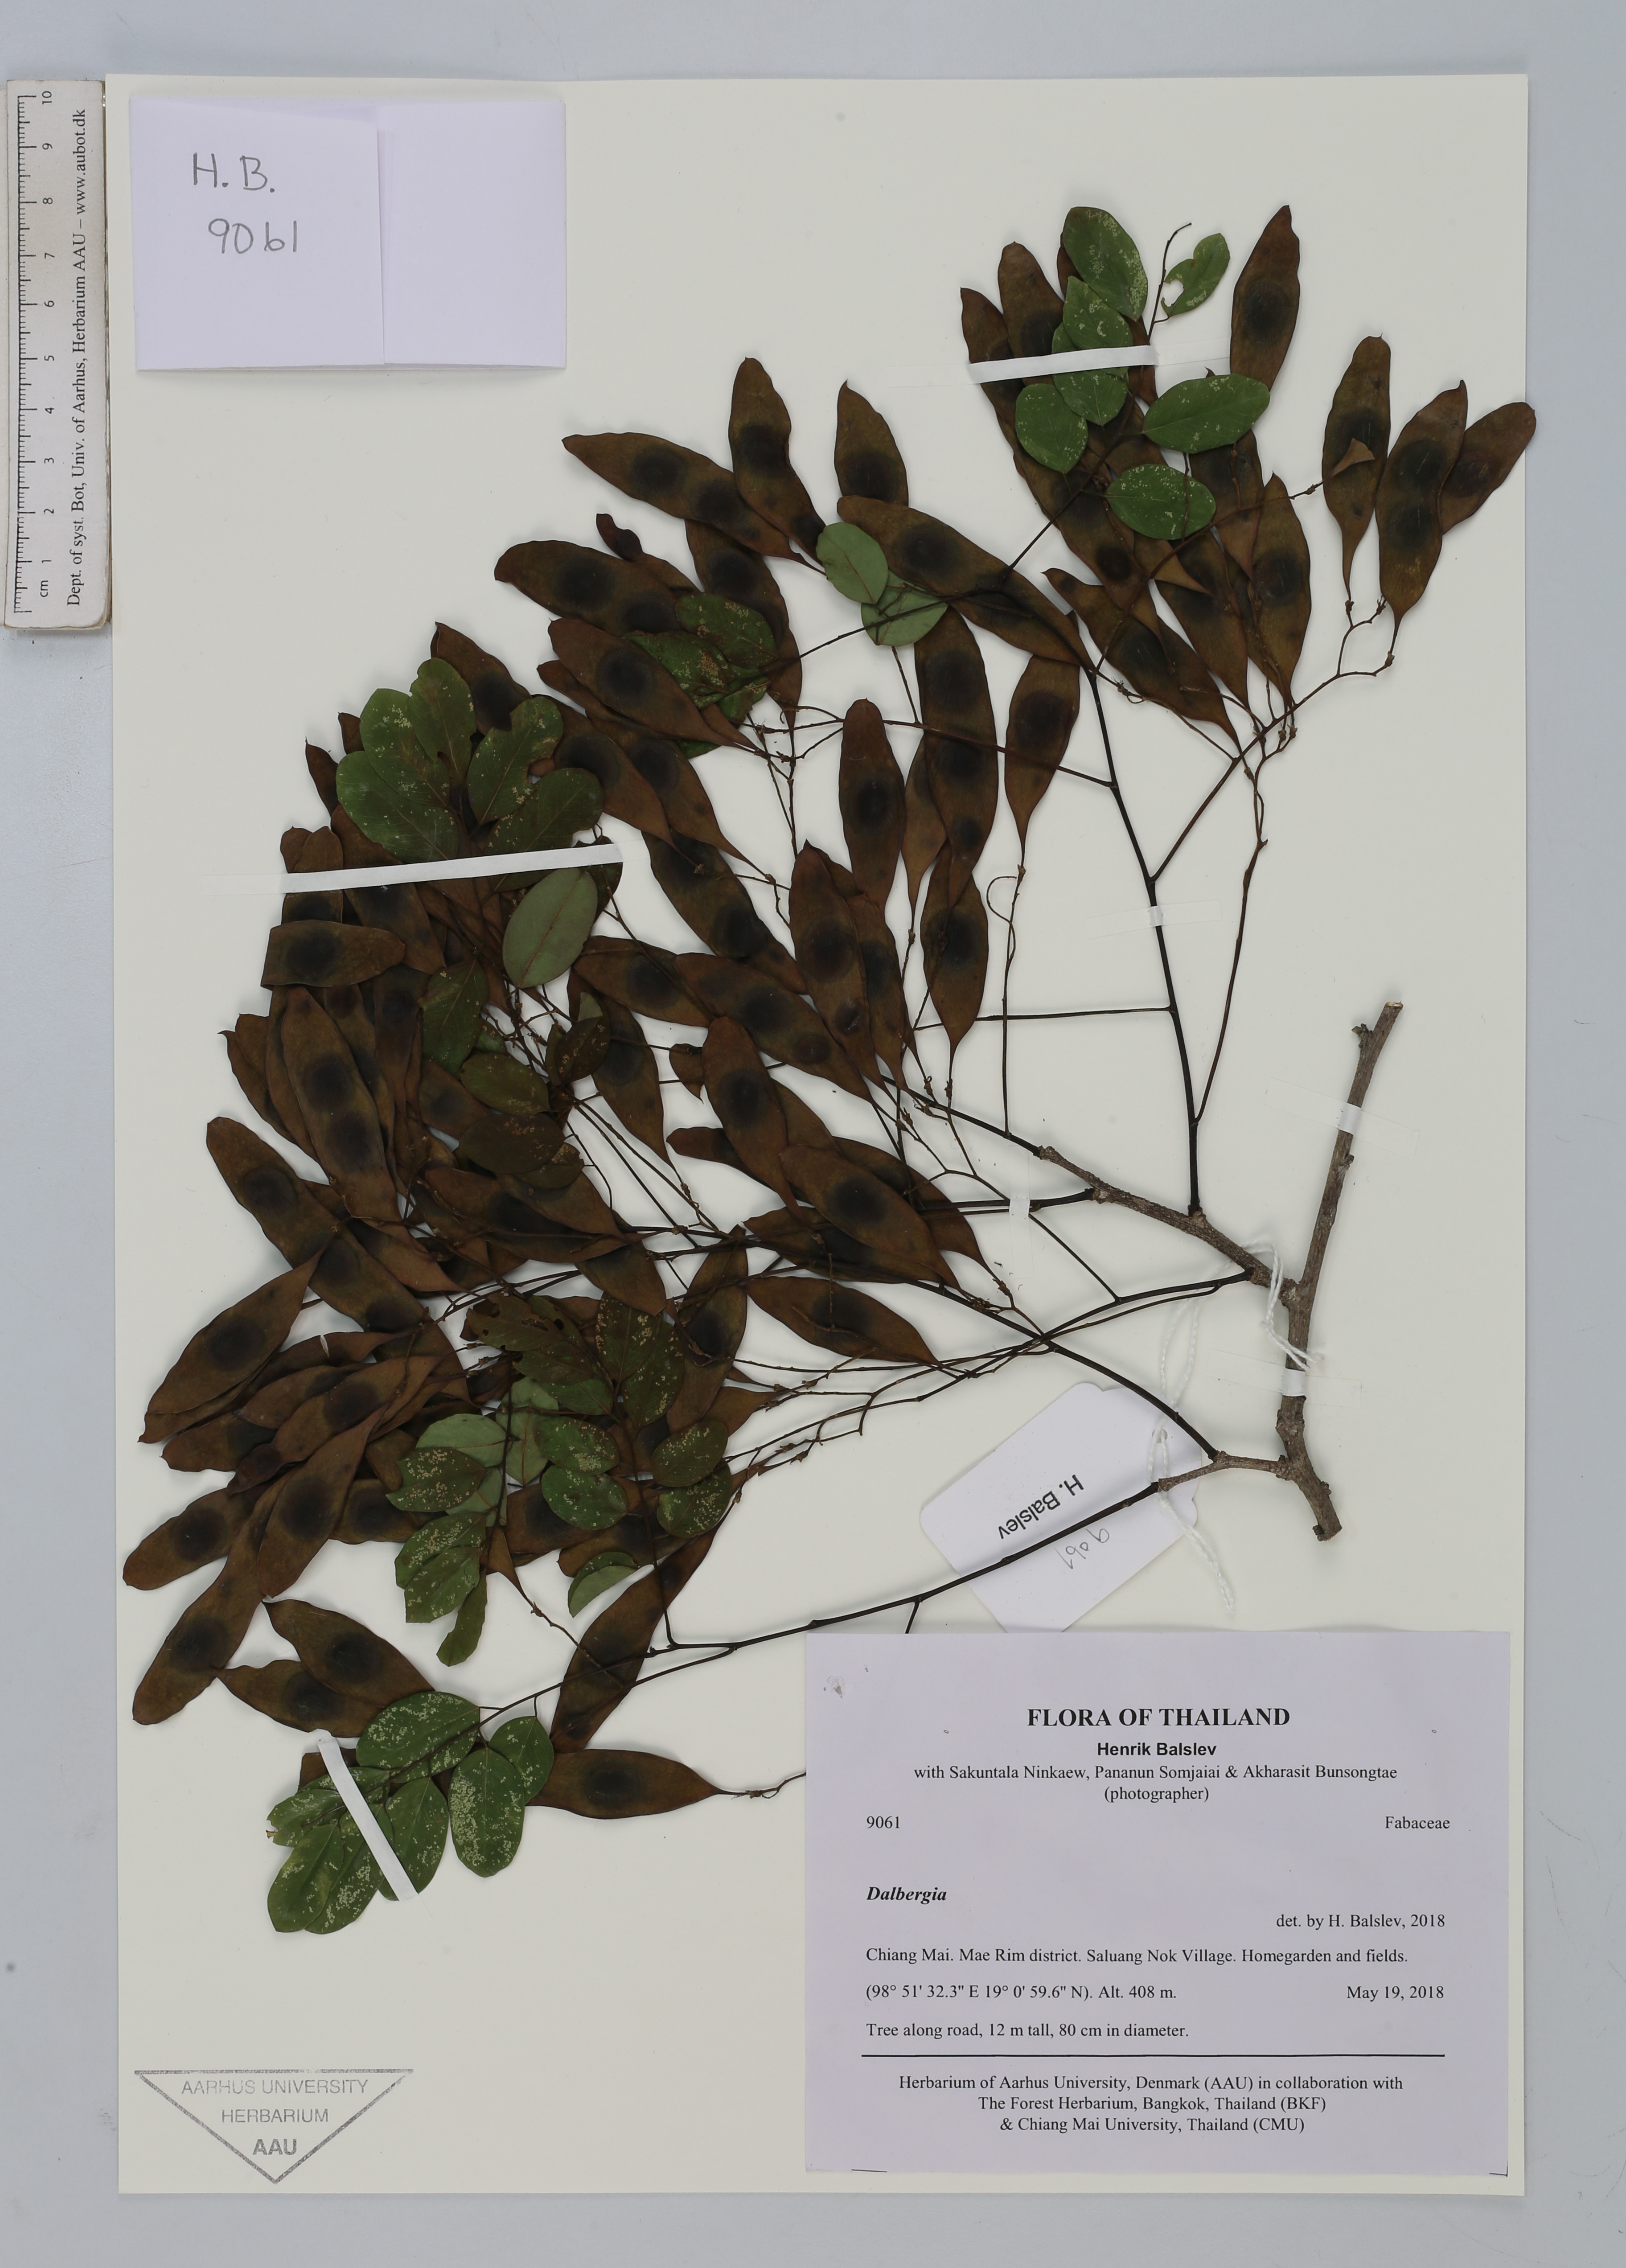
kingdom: Plantae
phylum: Tracheophyta
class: Magnoliopsida
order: Fabales
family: Fabaceae
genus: Dalbergia
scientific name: Dalbergia
